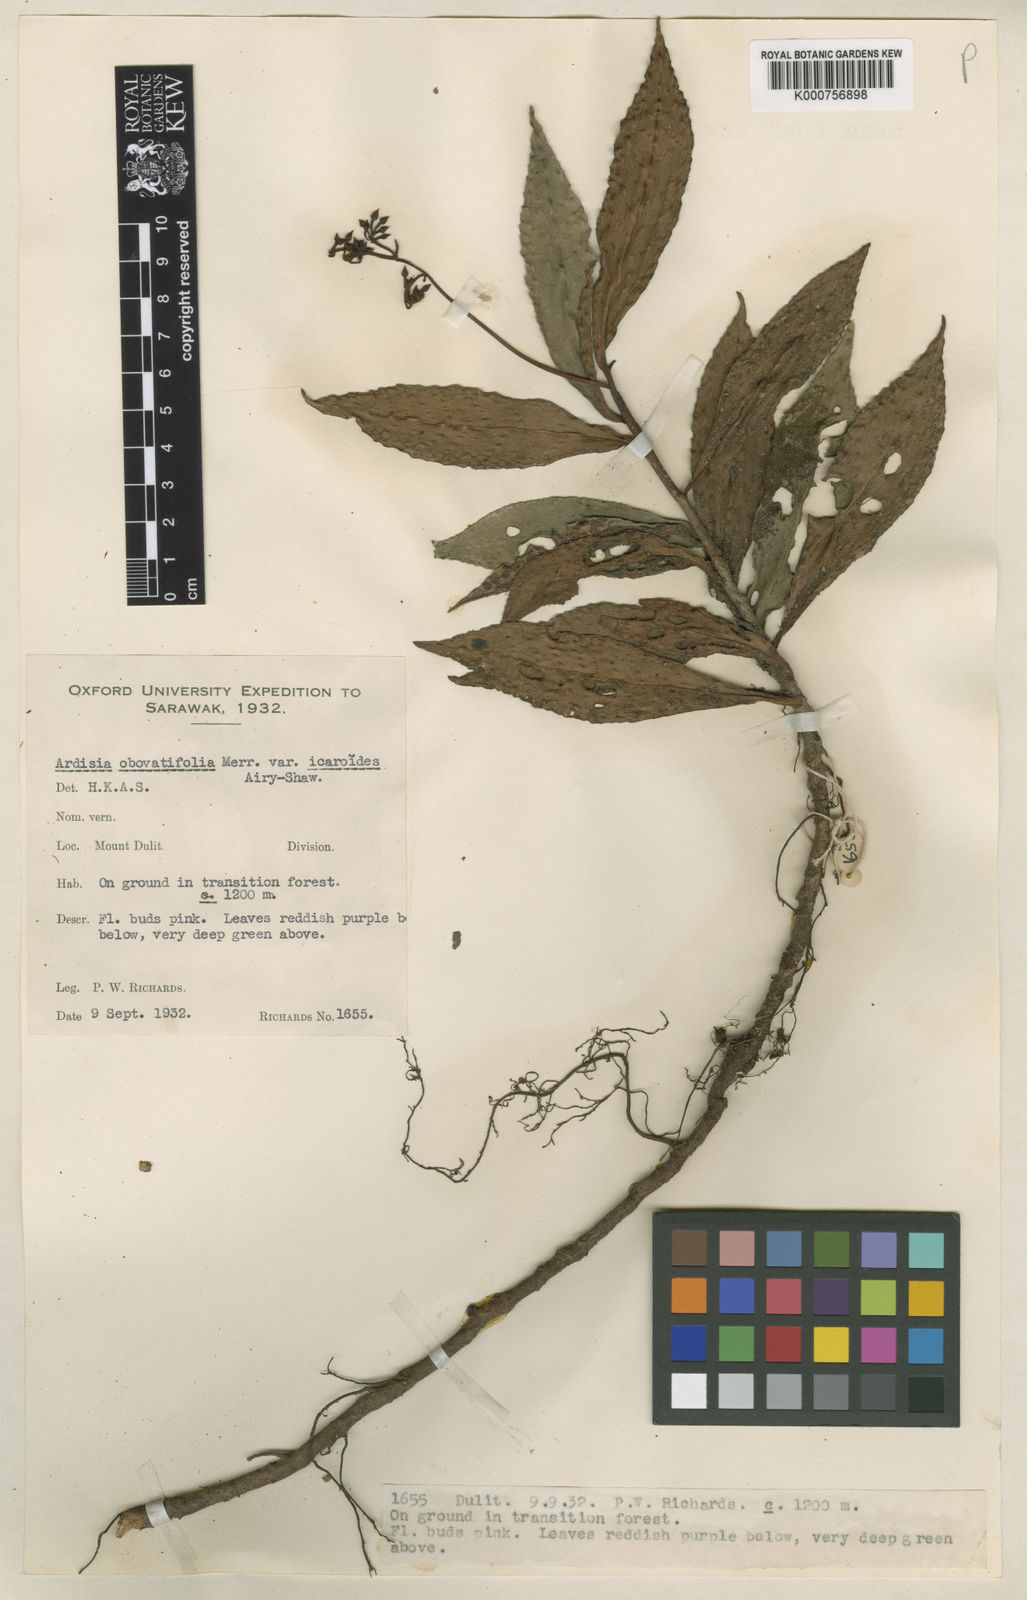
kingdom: Plantae
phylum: Tracheophyta
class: Magnoliopsida
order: Ericales
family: Primulaceae
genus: Ardisia
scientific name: Ardisia obovatifolia
